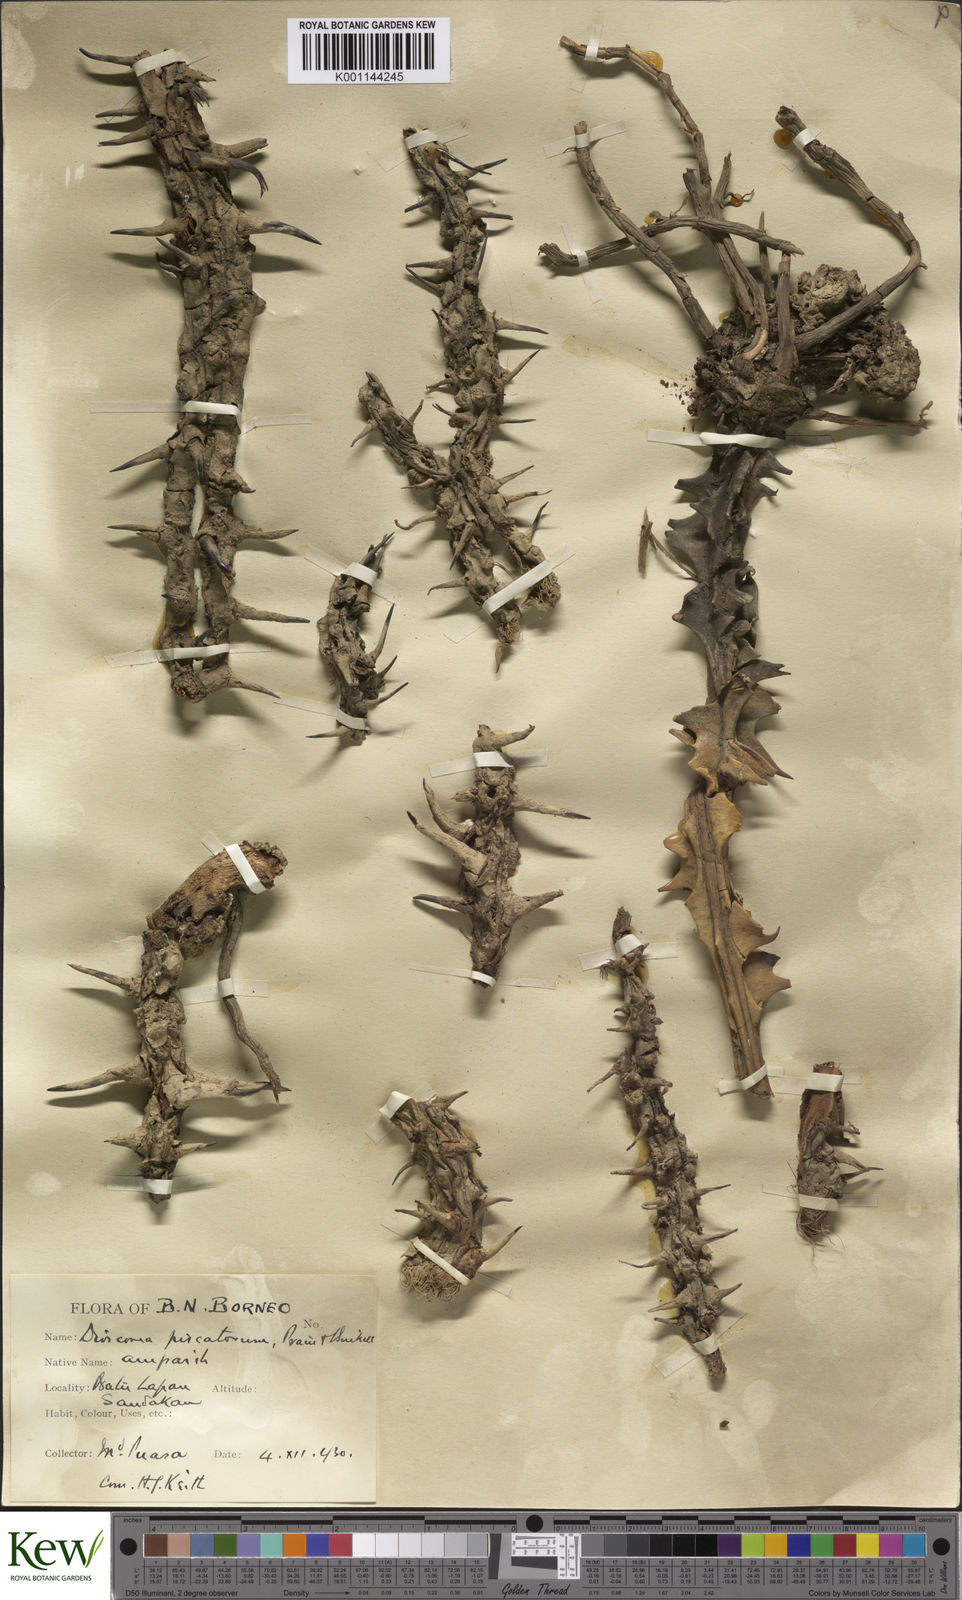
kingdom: Plantae
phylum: Tracheophyta
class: Liliopsida
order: Dioscoreales
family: Dioscoreaceae
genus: Dioscorea
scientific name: Dioscorea piscatorum
